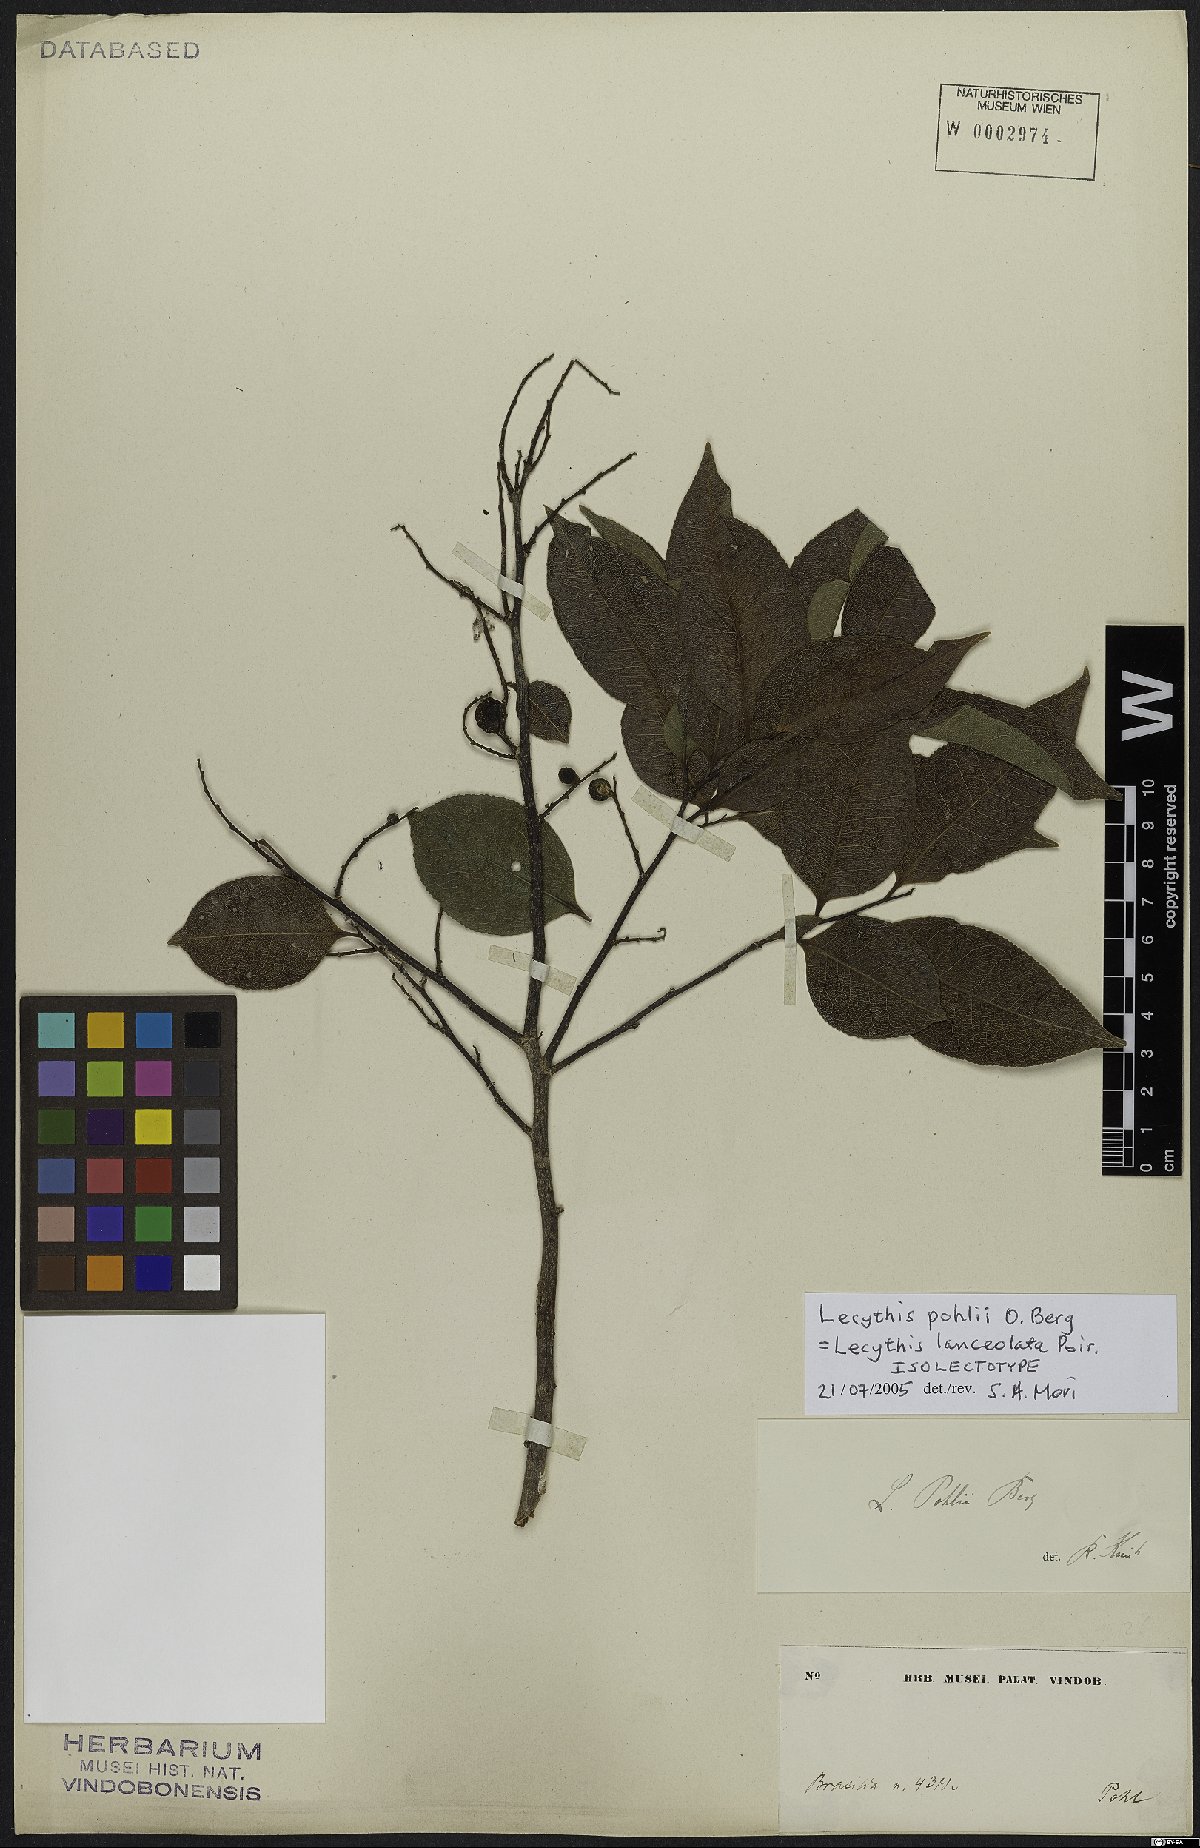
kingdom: Plantae
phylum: Tracheophyta
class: Magnoliopsida
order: Ericales
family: Lecythidaceae
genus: Lecythis
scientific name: Lecythis lanceolata
